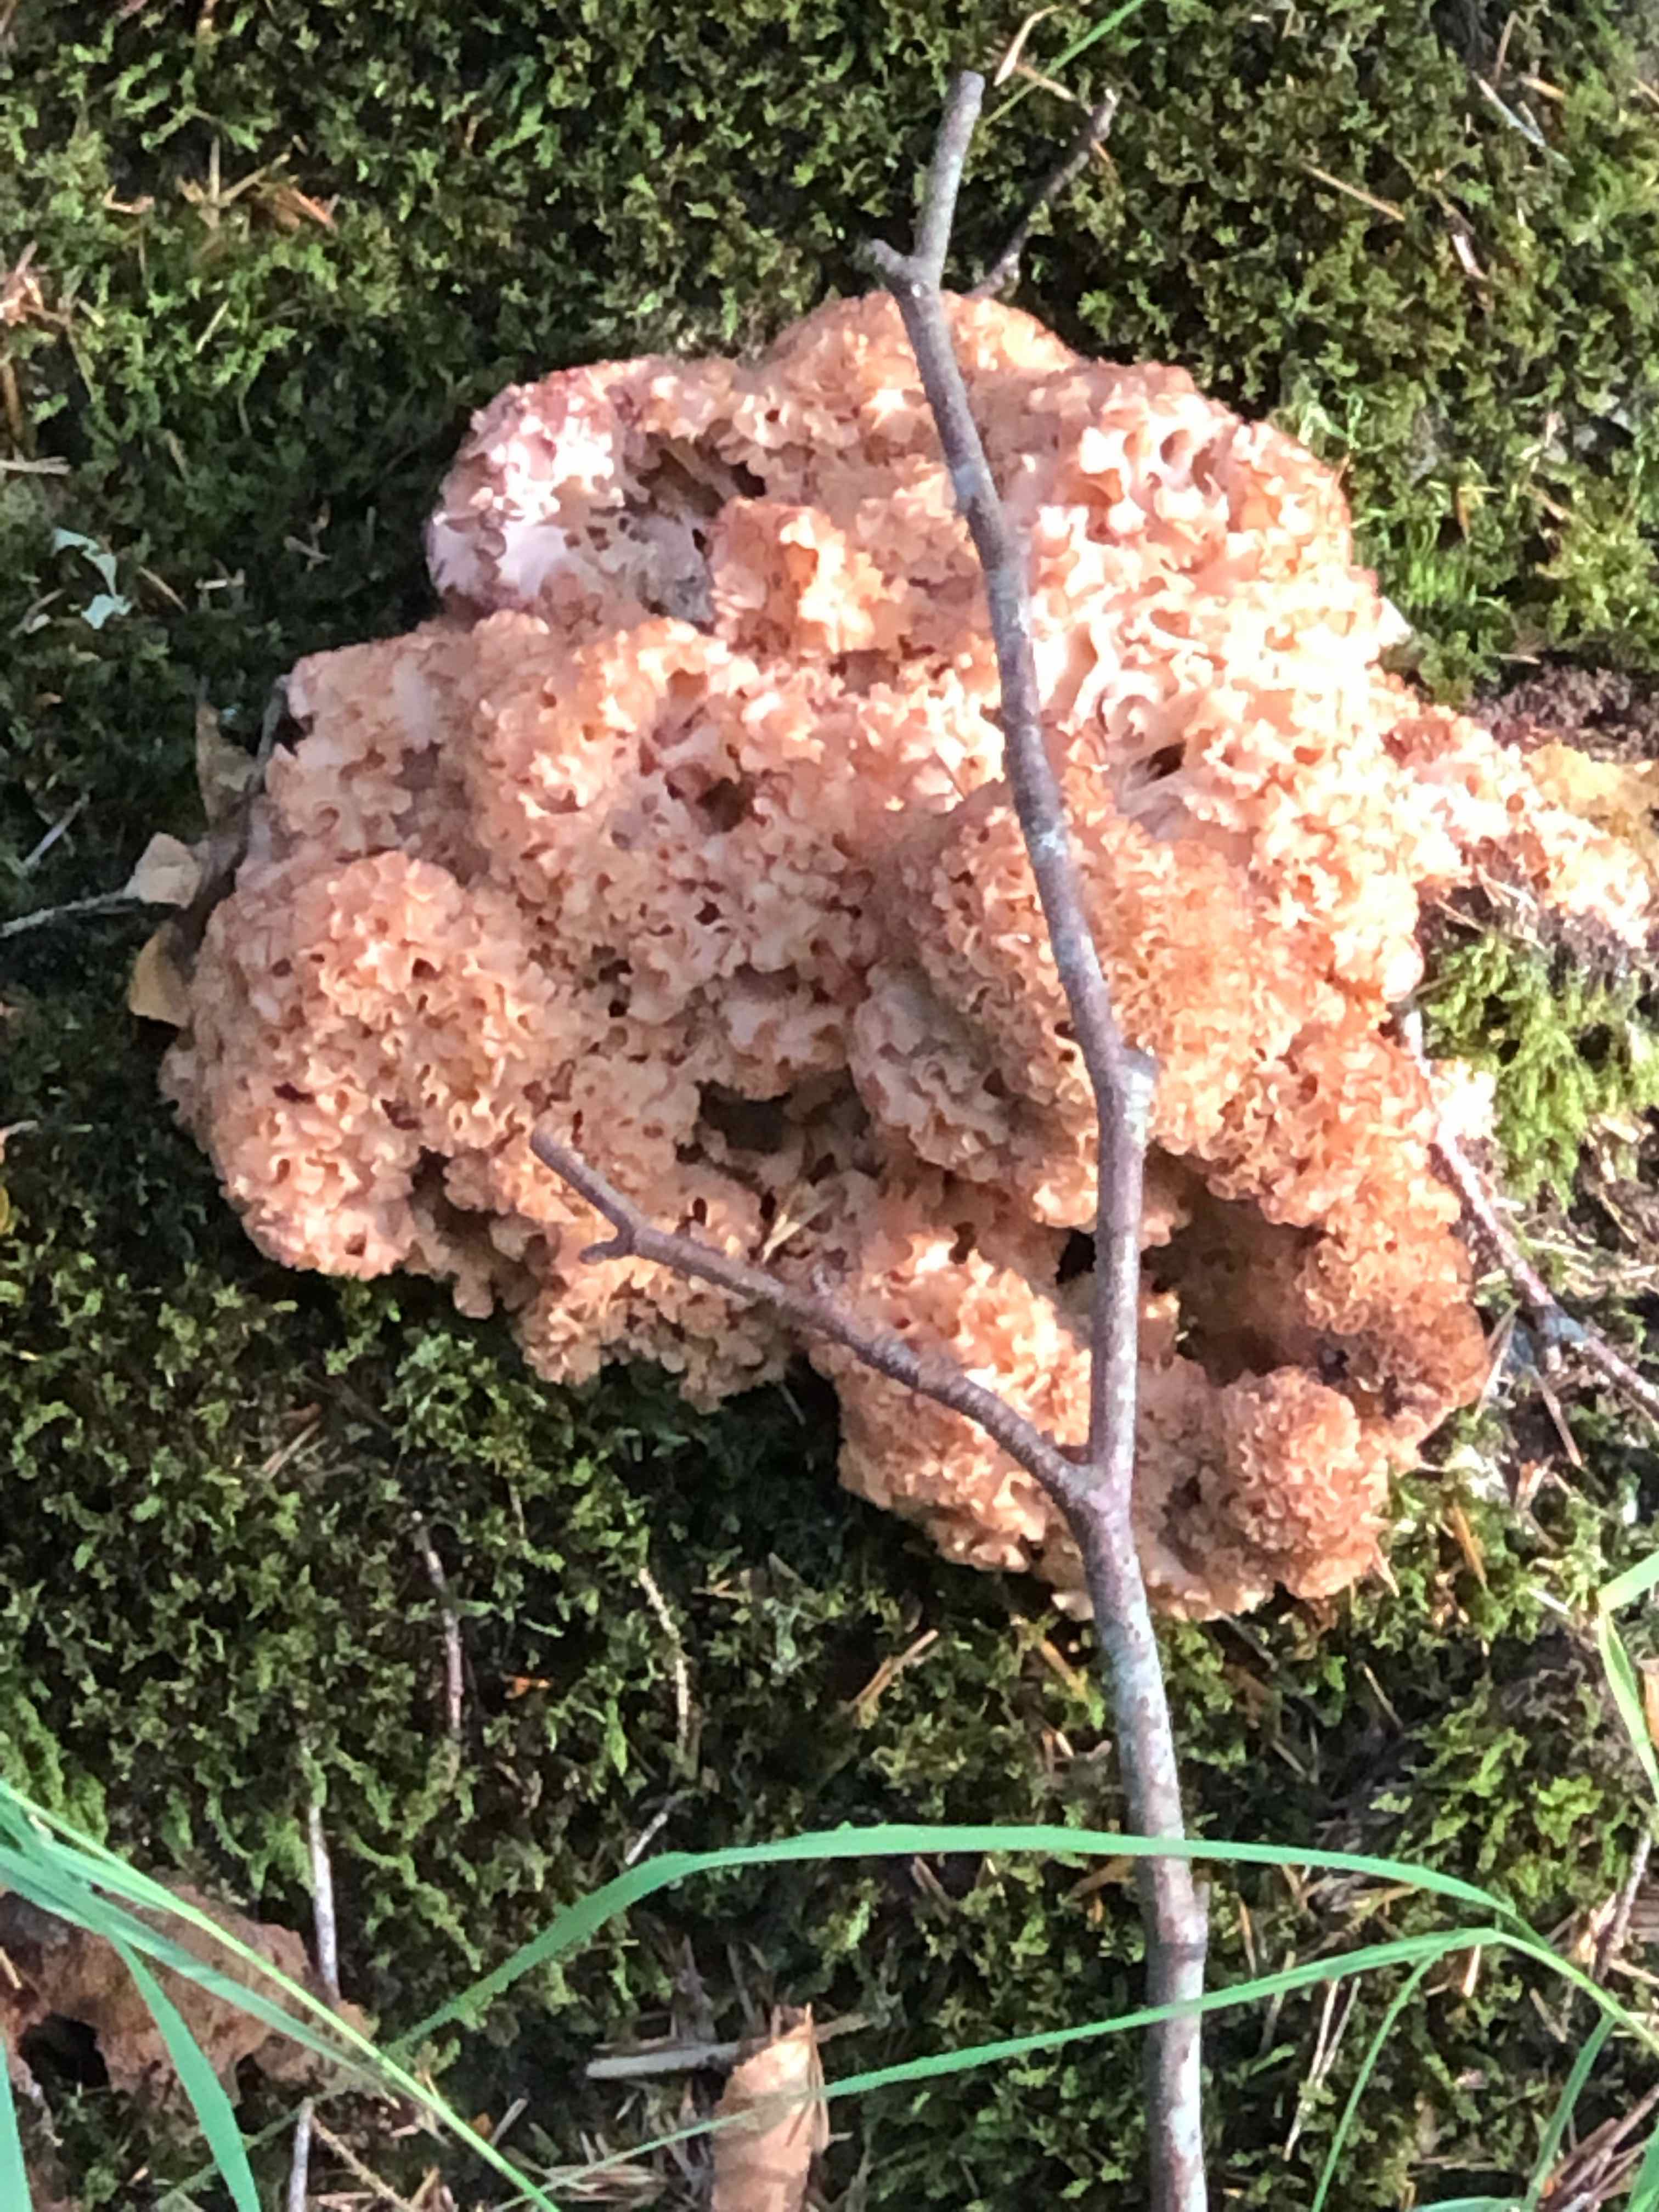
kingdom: Fungi
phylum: Basidiomycota
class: Agaricomycetes
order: Polyporales
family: Sparassidaceae
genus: Sparassis
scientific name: Sparassis crispa
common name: kruset blomkålssvamp
